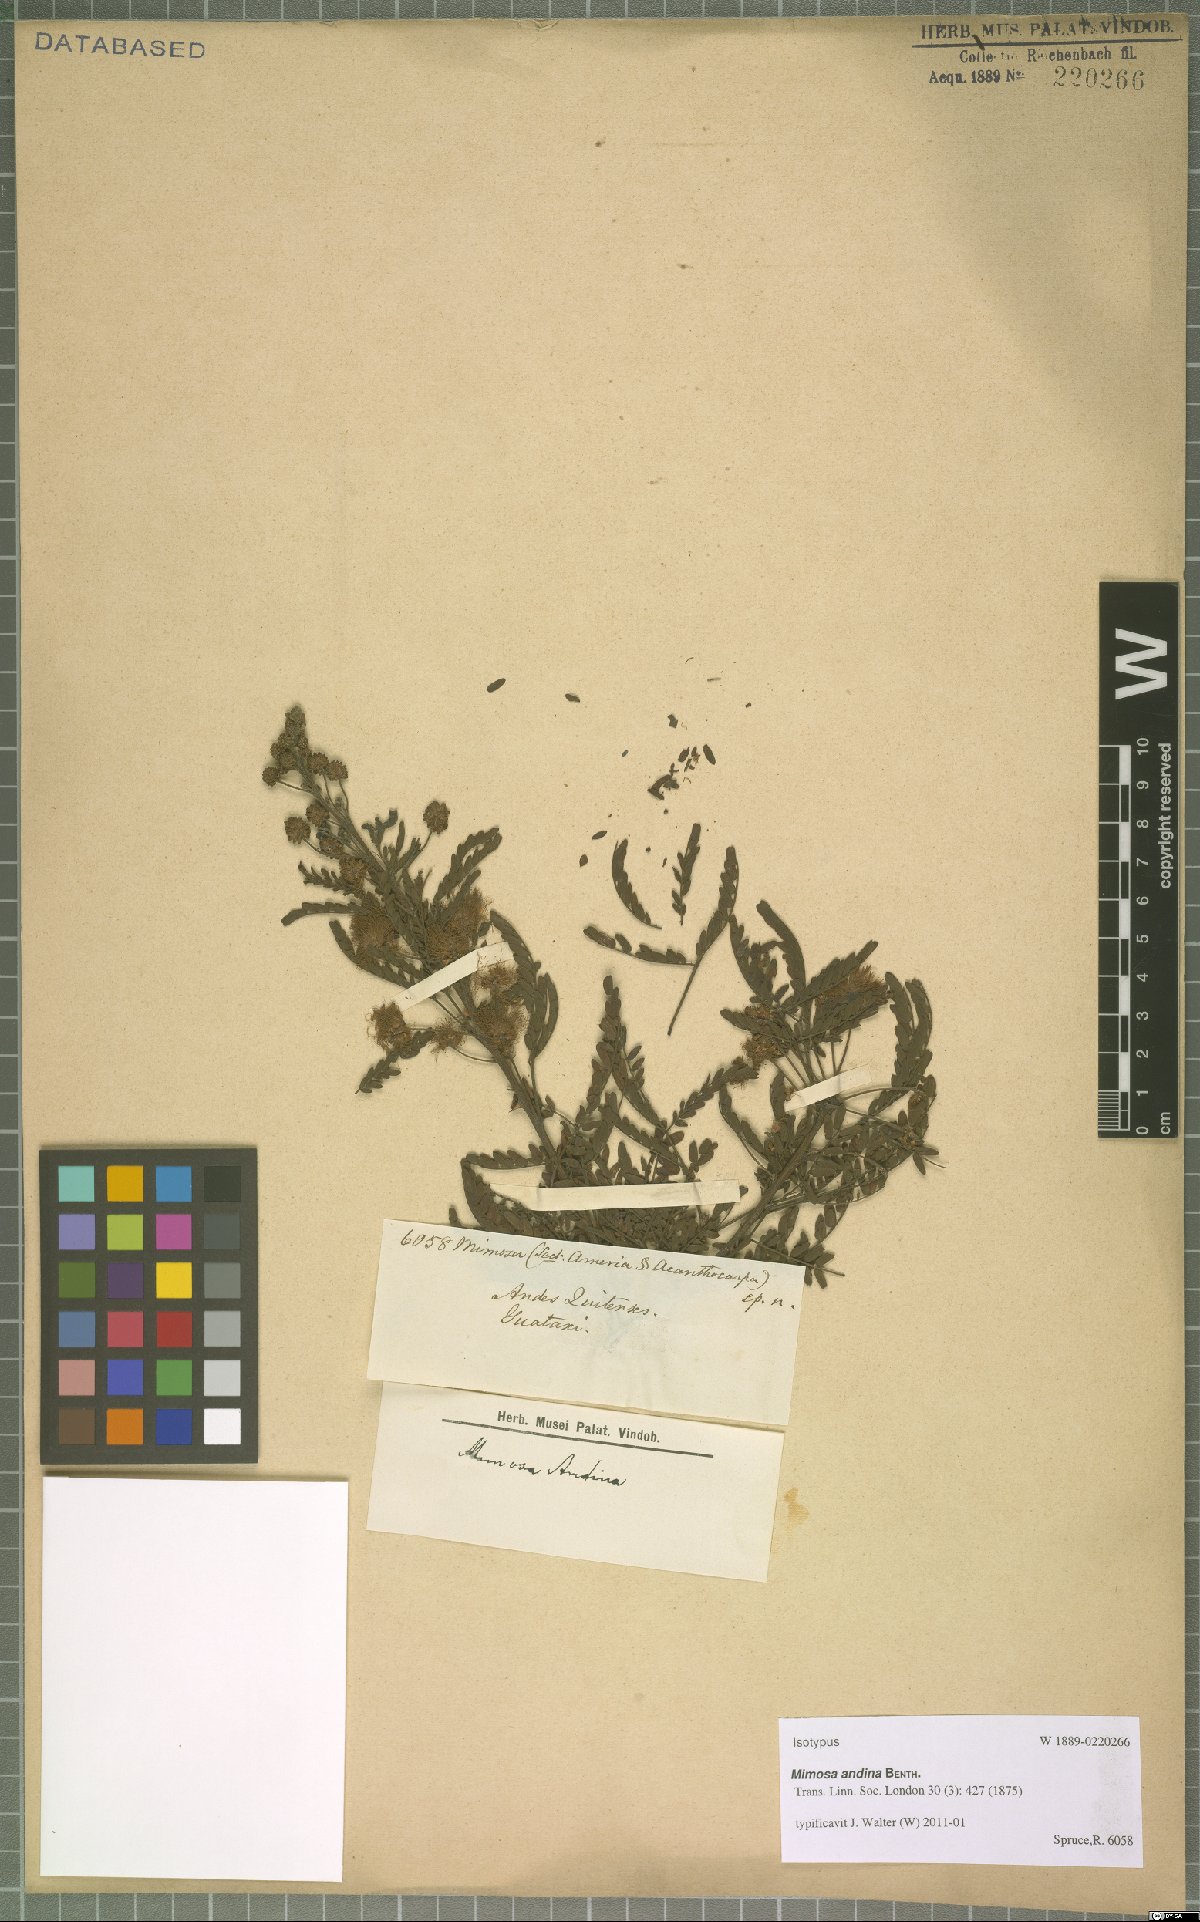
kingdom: Plantae
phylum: Tracheophyta
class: Magnoliopsida
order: Fabales
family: Fabaceae
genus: Mimosa
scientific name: Mimosa andina
